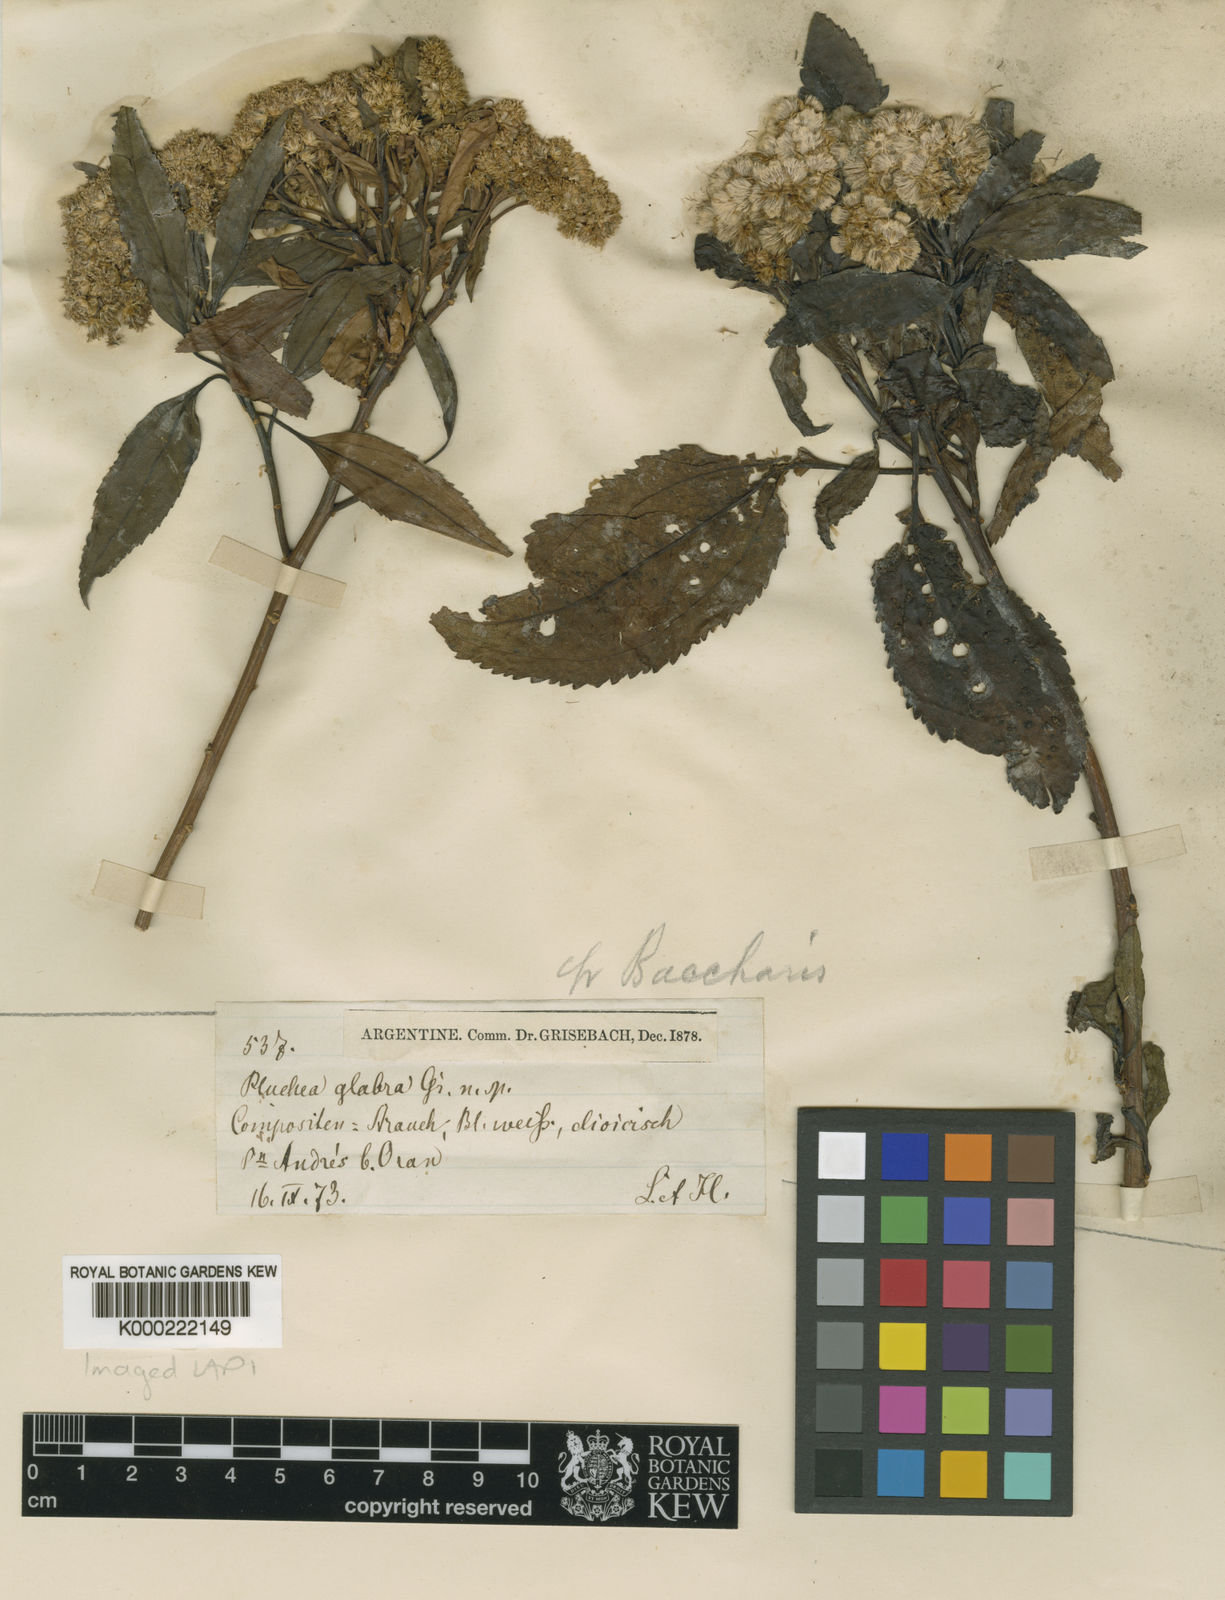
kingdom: Plantae
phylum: Tracheophyta
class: Magnoliopsida
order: Asterales
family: Asteraceae
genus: Baccharis
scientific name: Baccharis latifolia
